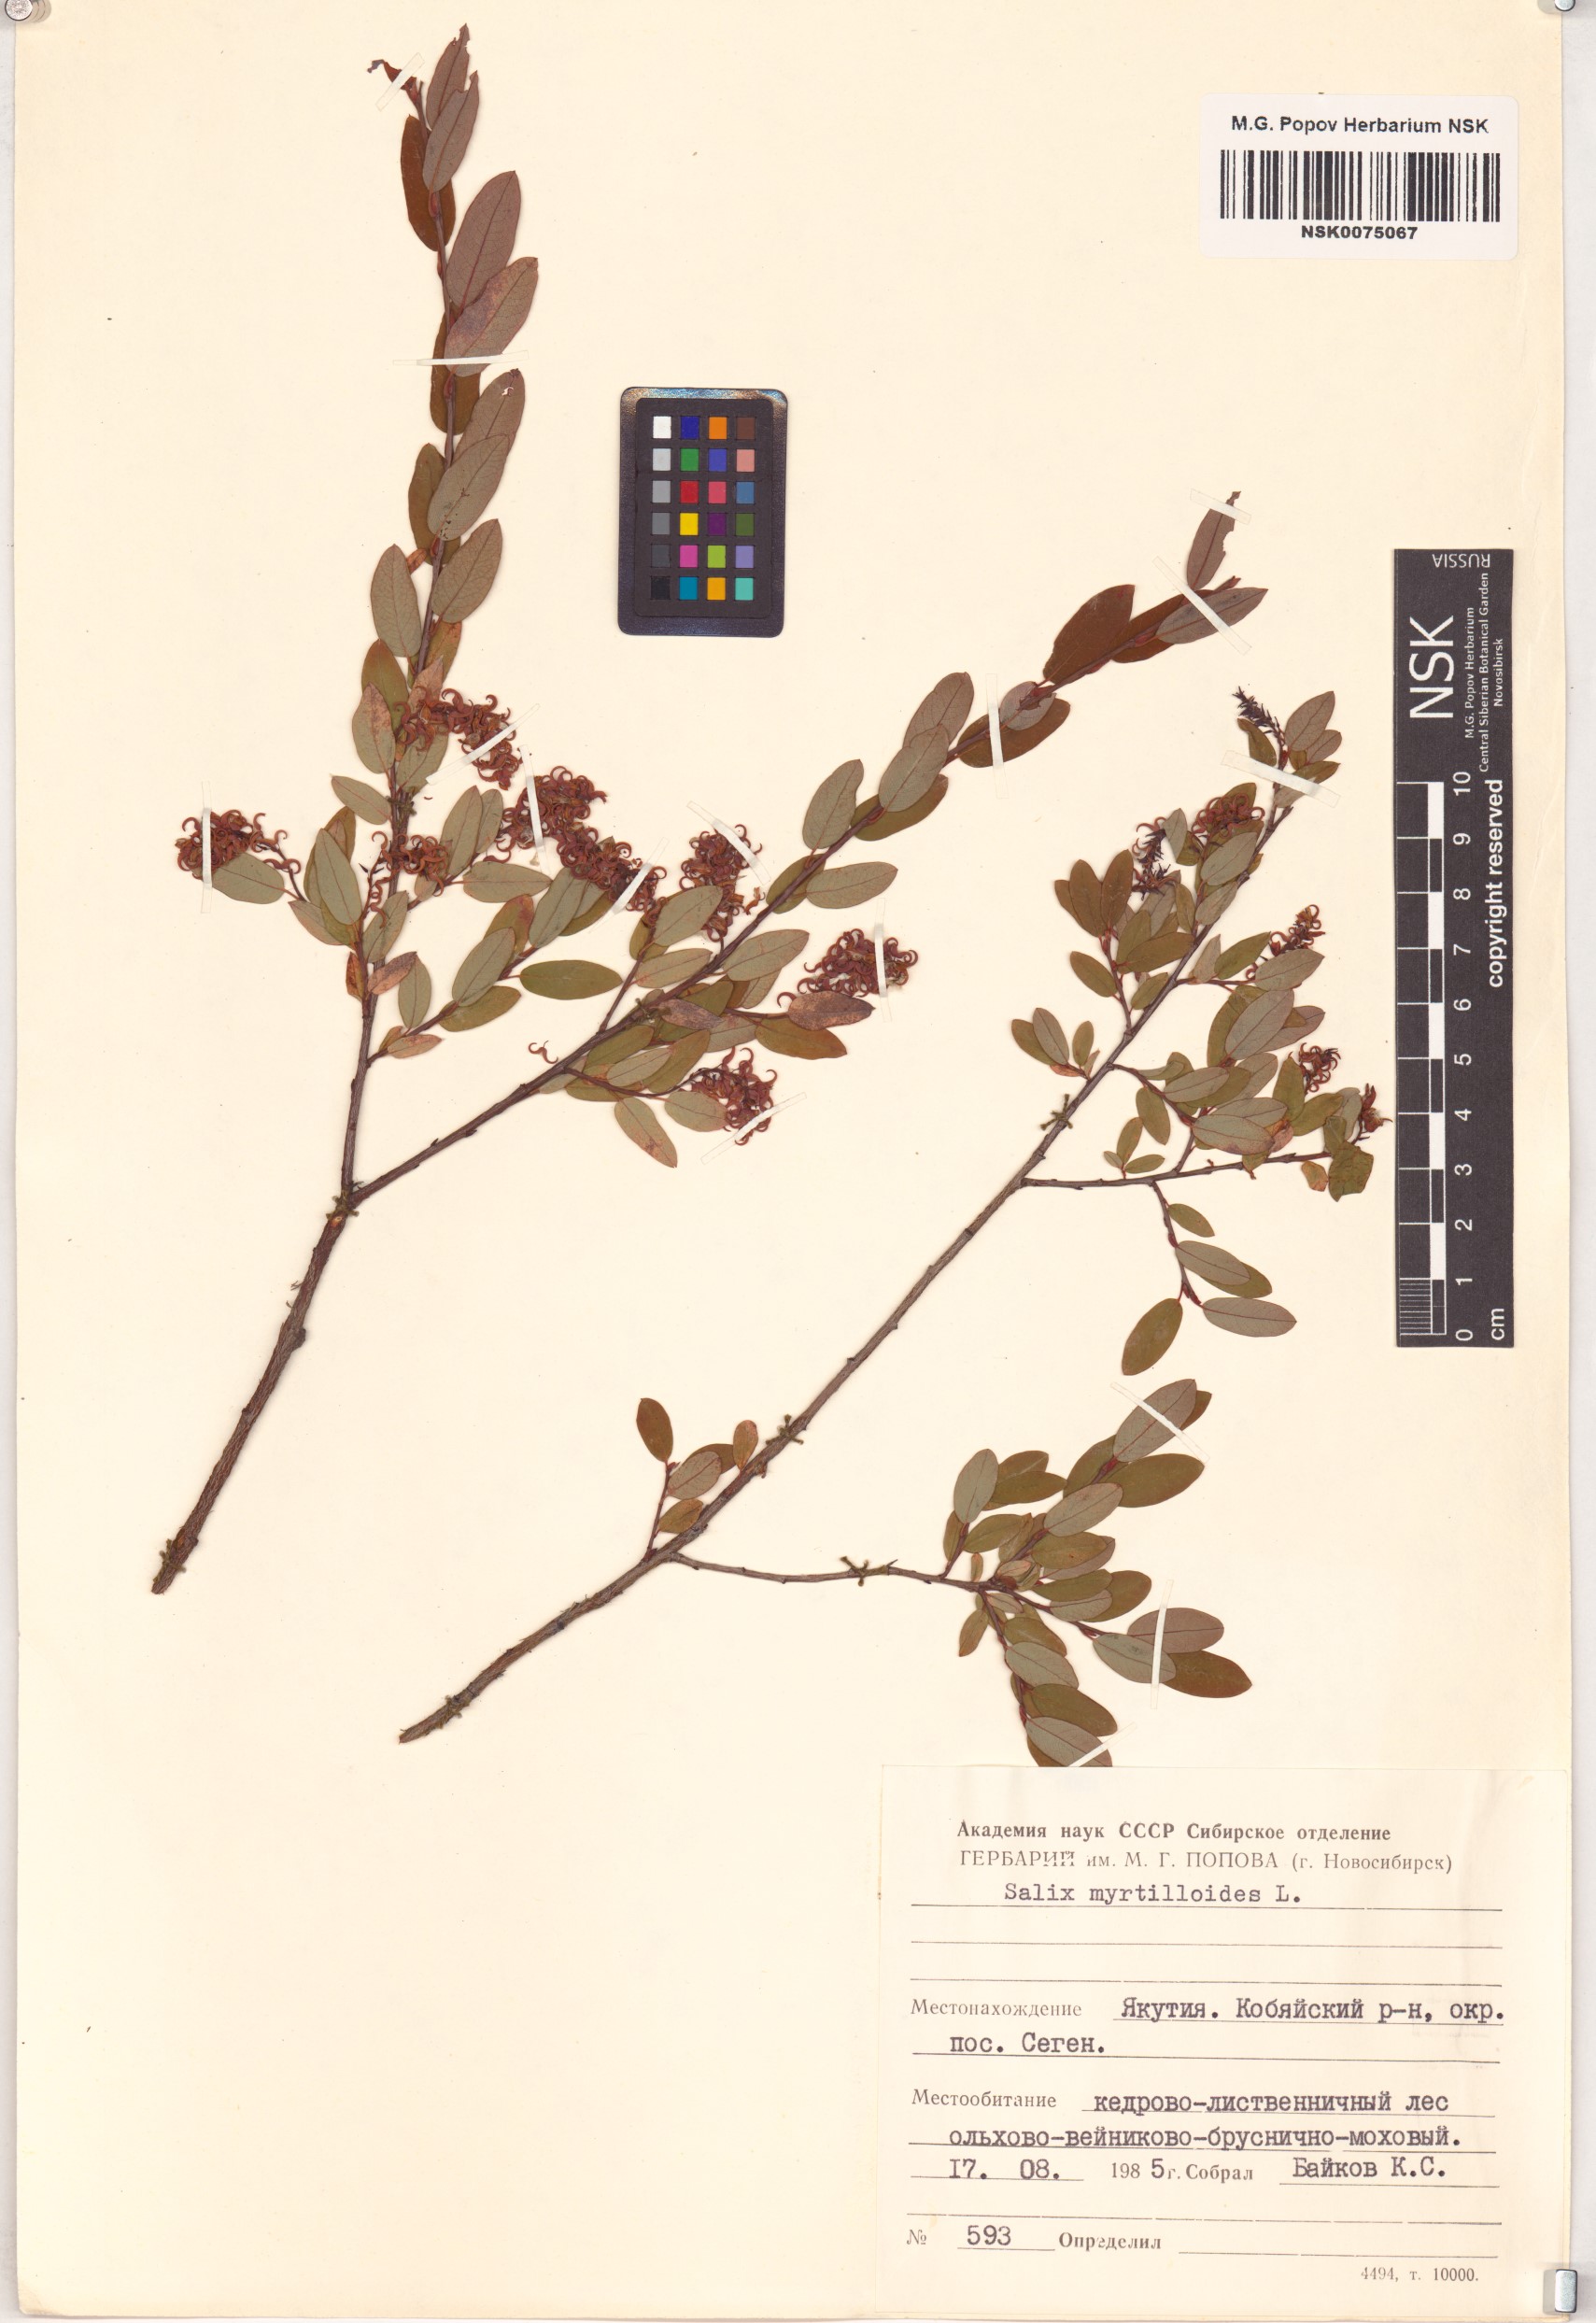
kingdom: Plantae
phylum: Tracheophyta
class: Magnoliopsida
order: Malpighiales
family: Salicaceae
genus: Salix
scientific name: Salix myrtilloides
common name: Myrtle-leaved willow
